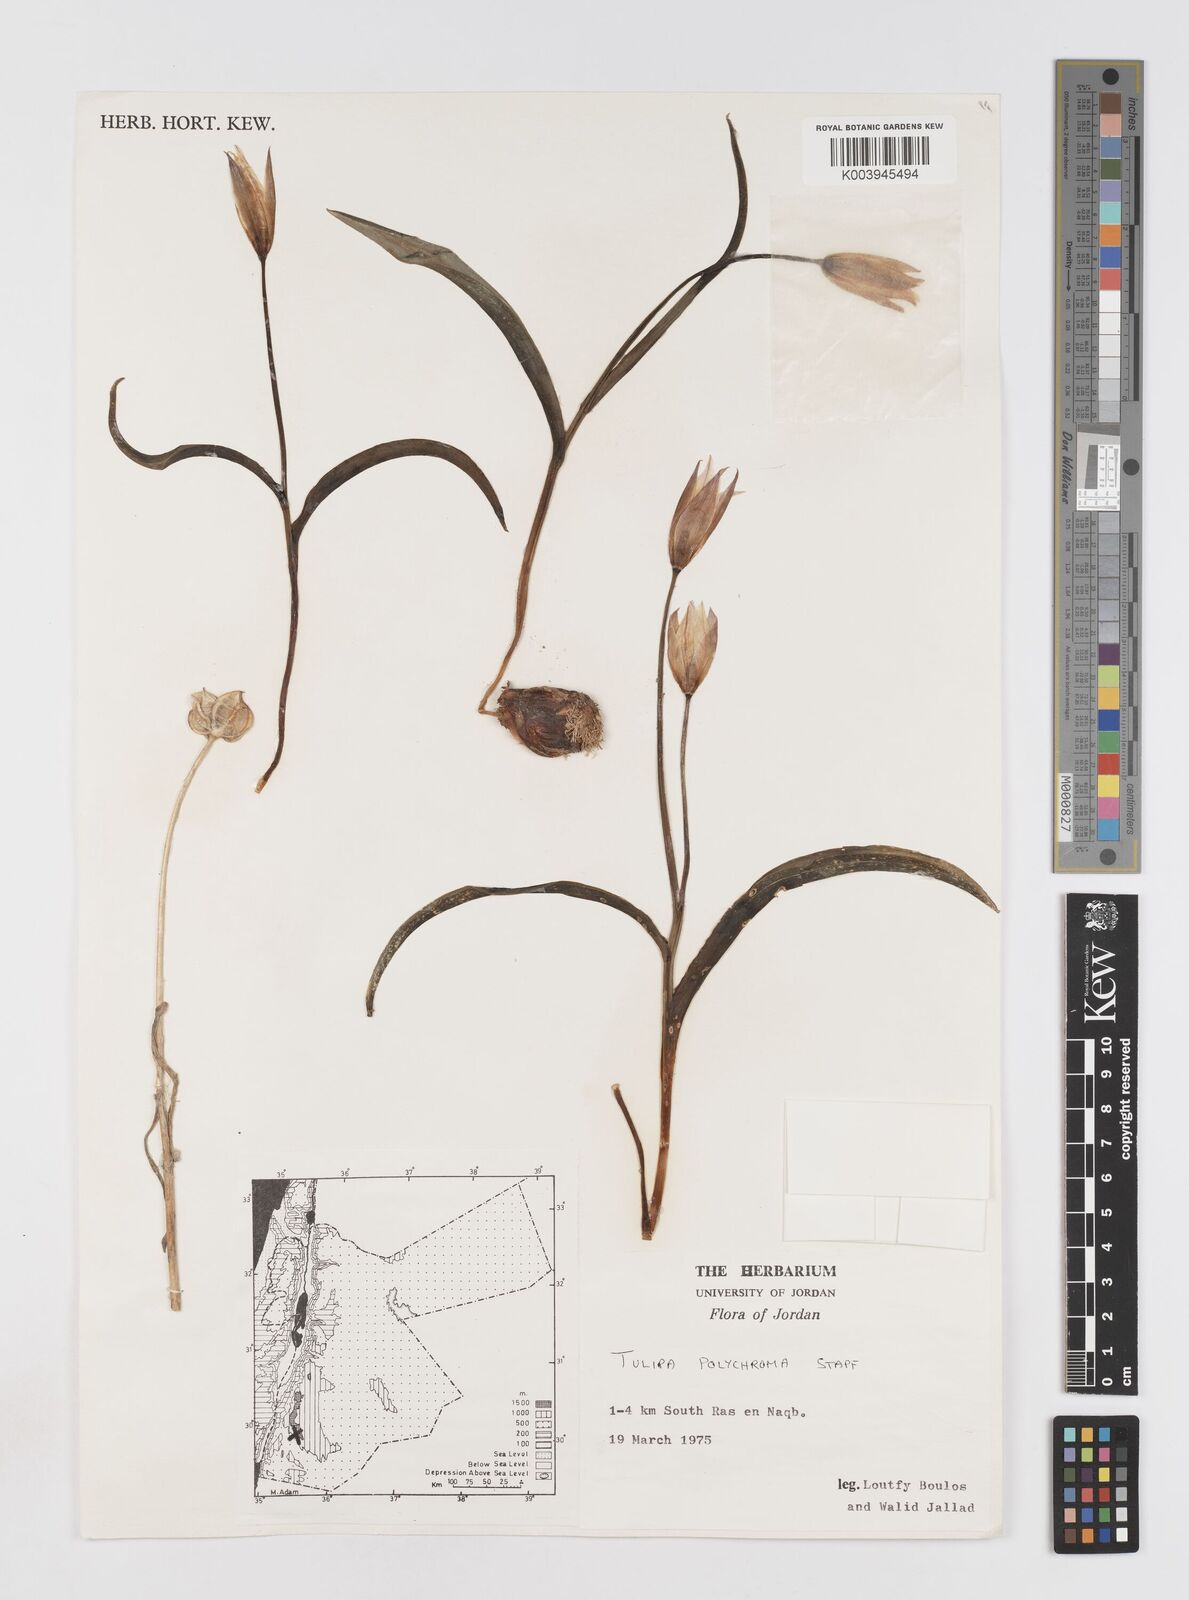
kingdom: Plantae
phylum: Tracheophyta
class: Liliopsida
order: Liliales
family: Liliaceae
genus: Tulipa
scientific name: Tulipa biflora
